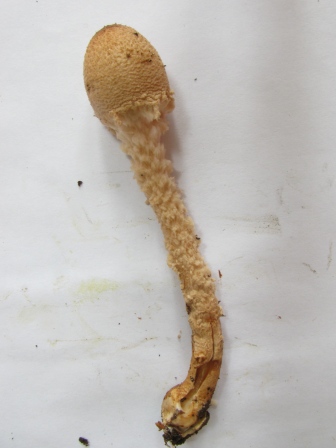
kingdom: Fungi
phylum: Basidiomycota
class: Agaricomycetes
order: Agaricales
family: Agaricaceae
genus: Lepiota
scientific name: Lepiota magnispora
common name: gulfnugget parasolhat
